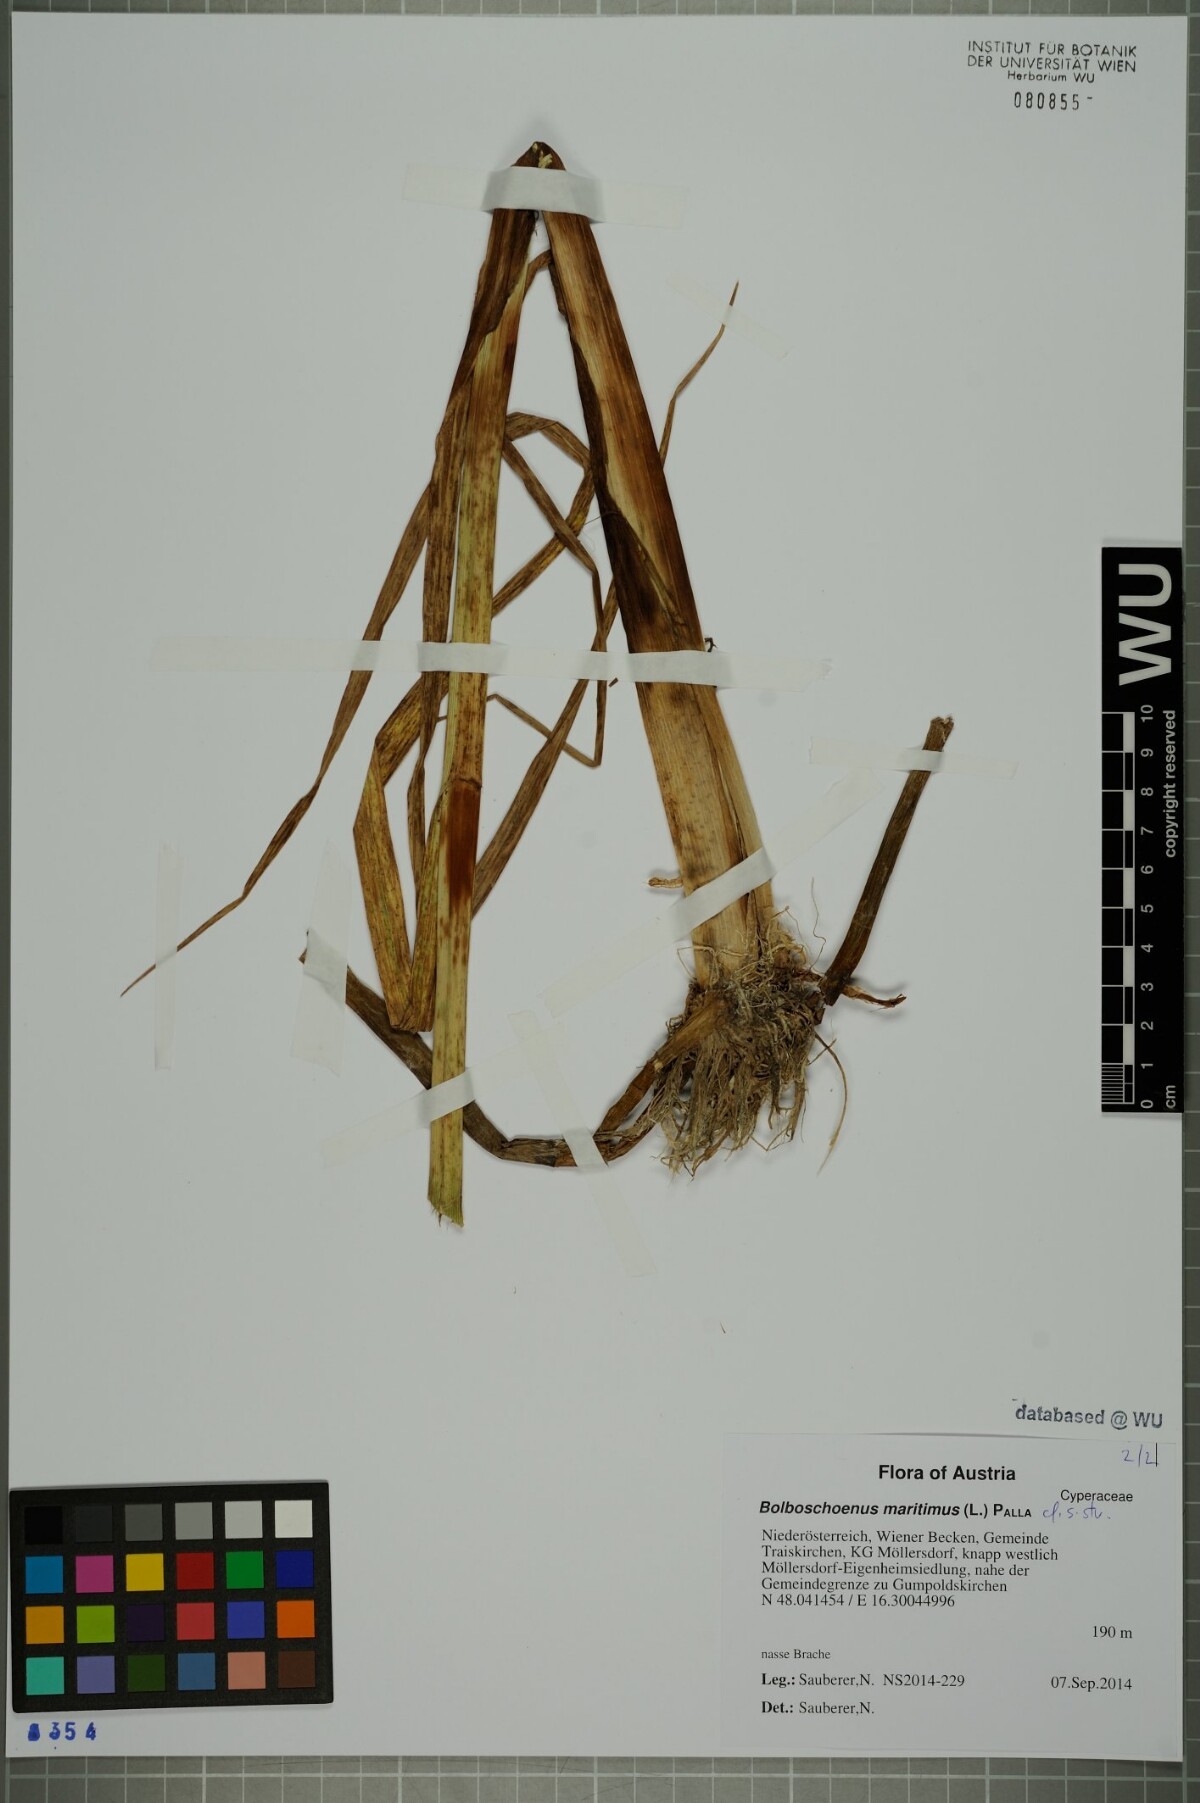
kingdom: Plantae
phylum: Tracheophyta
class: Liliopsida
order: Poales
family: Cyperaceae
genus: Bolboschoenus
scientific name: Bolboschoenus maritimus
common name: Sea club-rush
